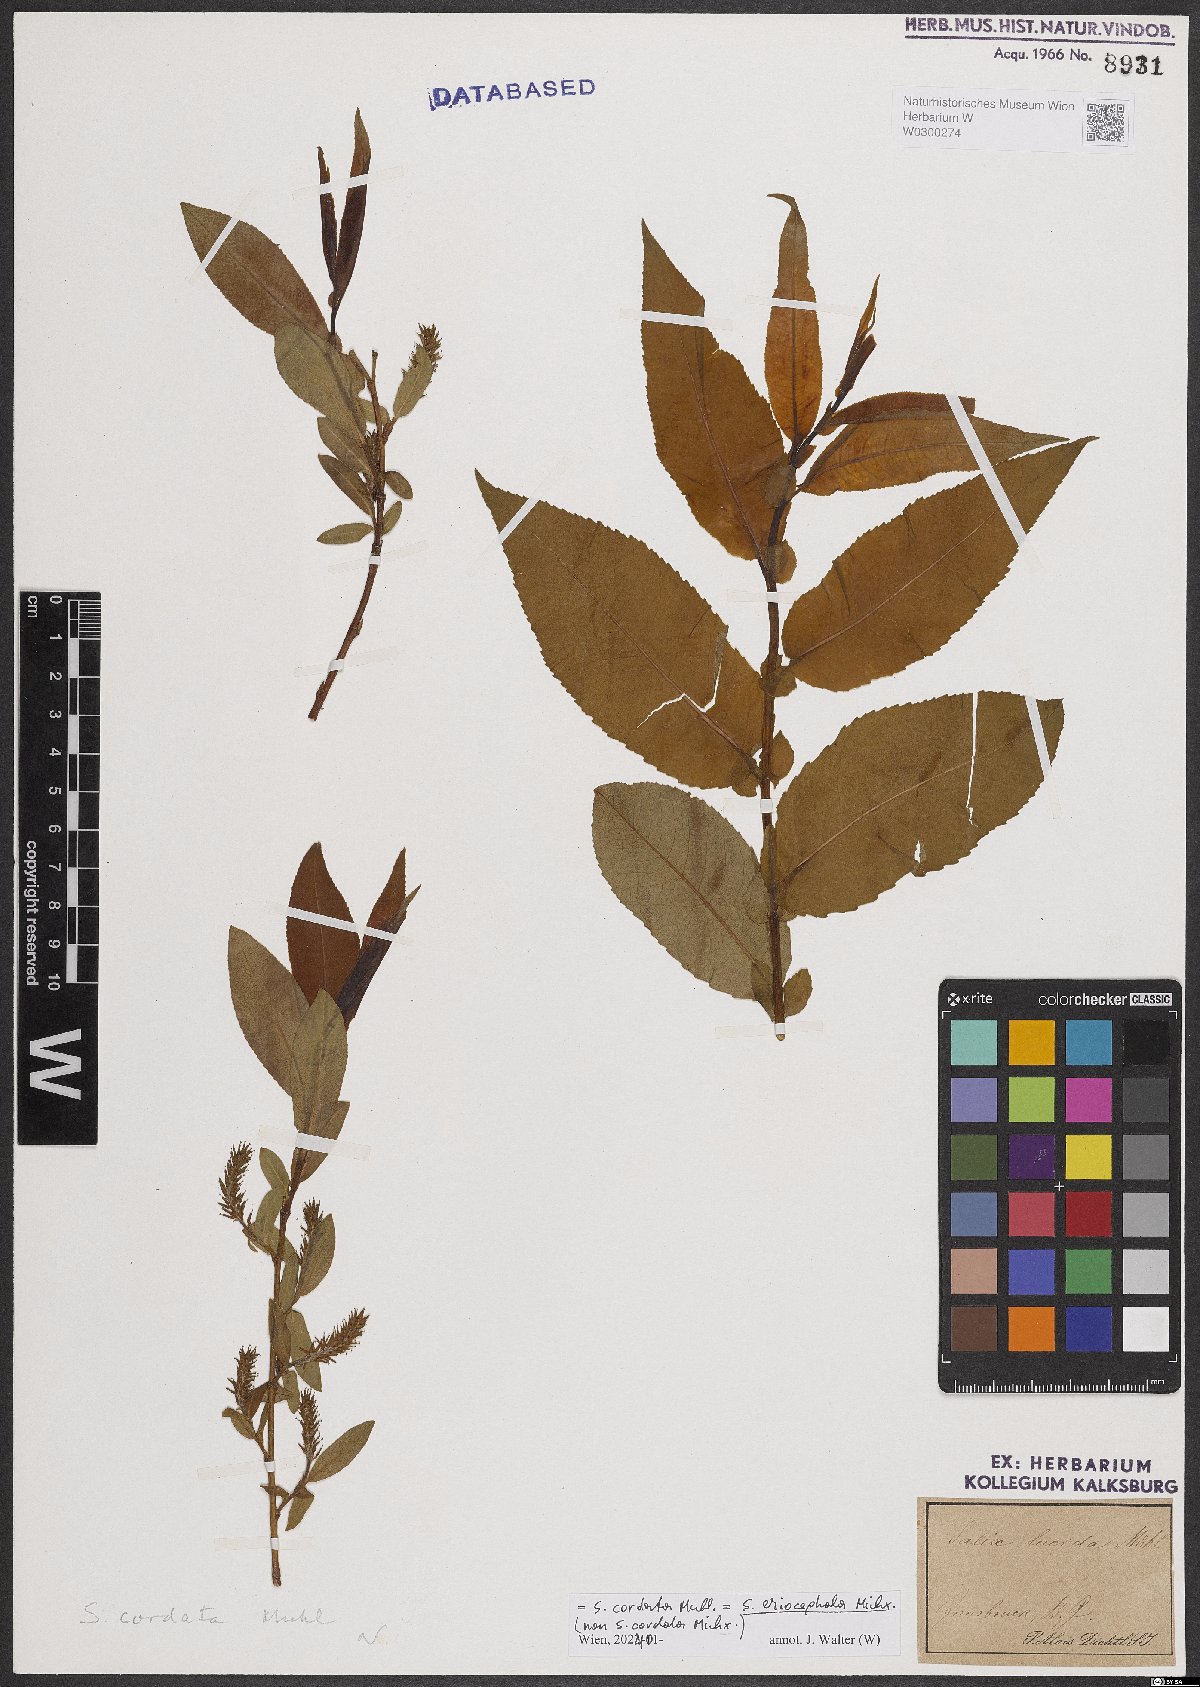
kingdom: Plantae
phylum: Tracheophyta
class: Magnoliopsida
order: Malpighiales
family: Salicaceae
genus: Salix
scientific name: Salix eriocephala
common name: Heart-leaved willow
